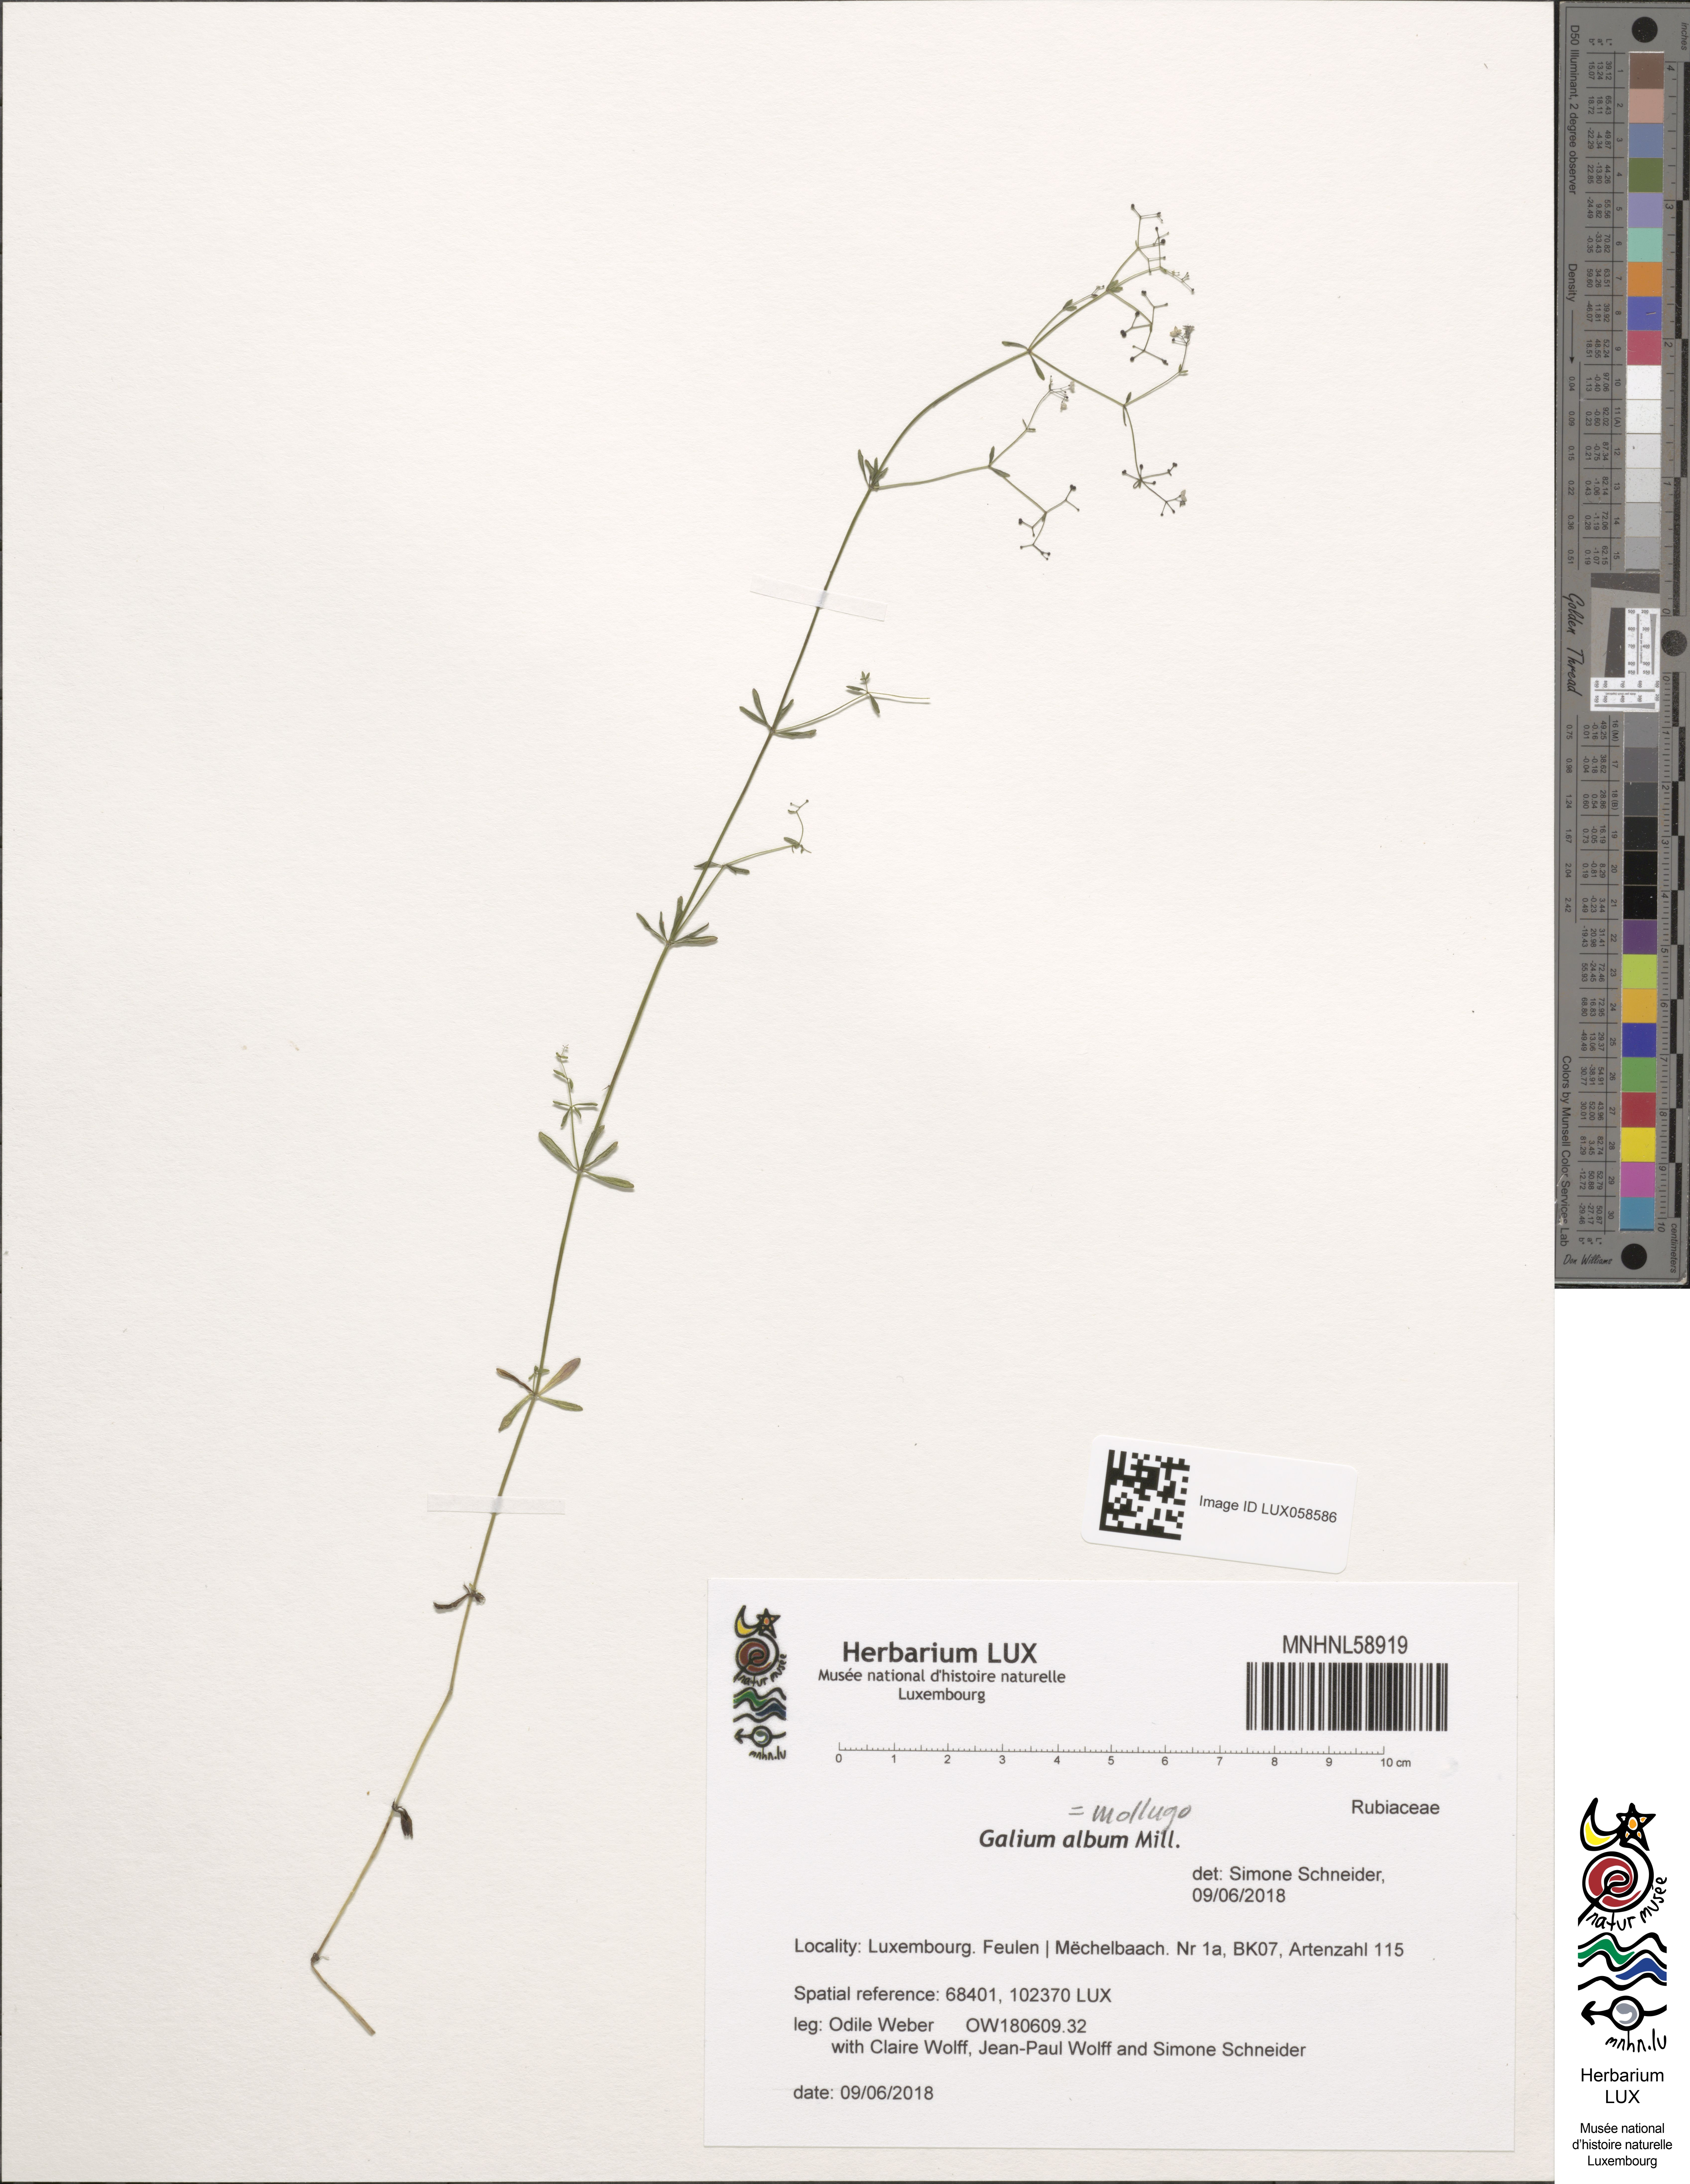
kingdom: Plantae
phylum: Tracheophyta
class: Magnoliopsida
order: Gentianales
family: Rubiaceae
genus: Galium
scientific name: Galium album
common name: White bedstraw
